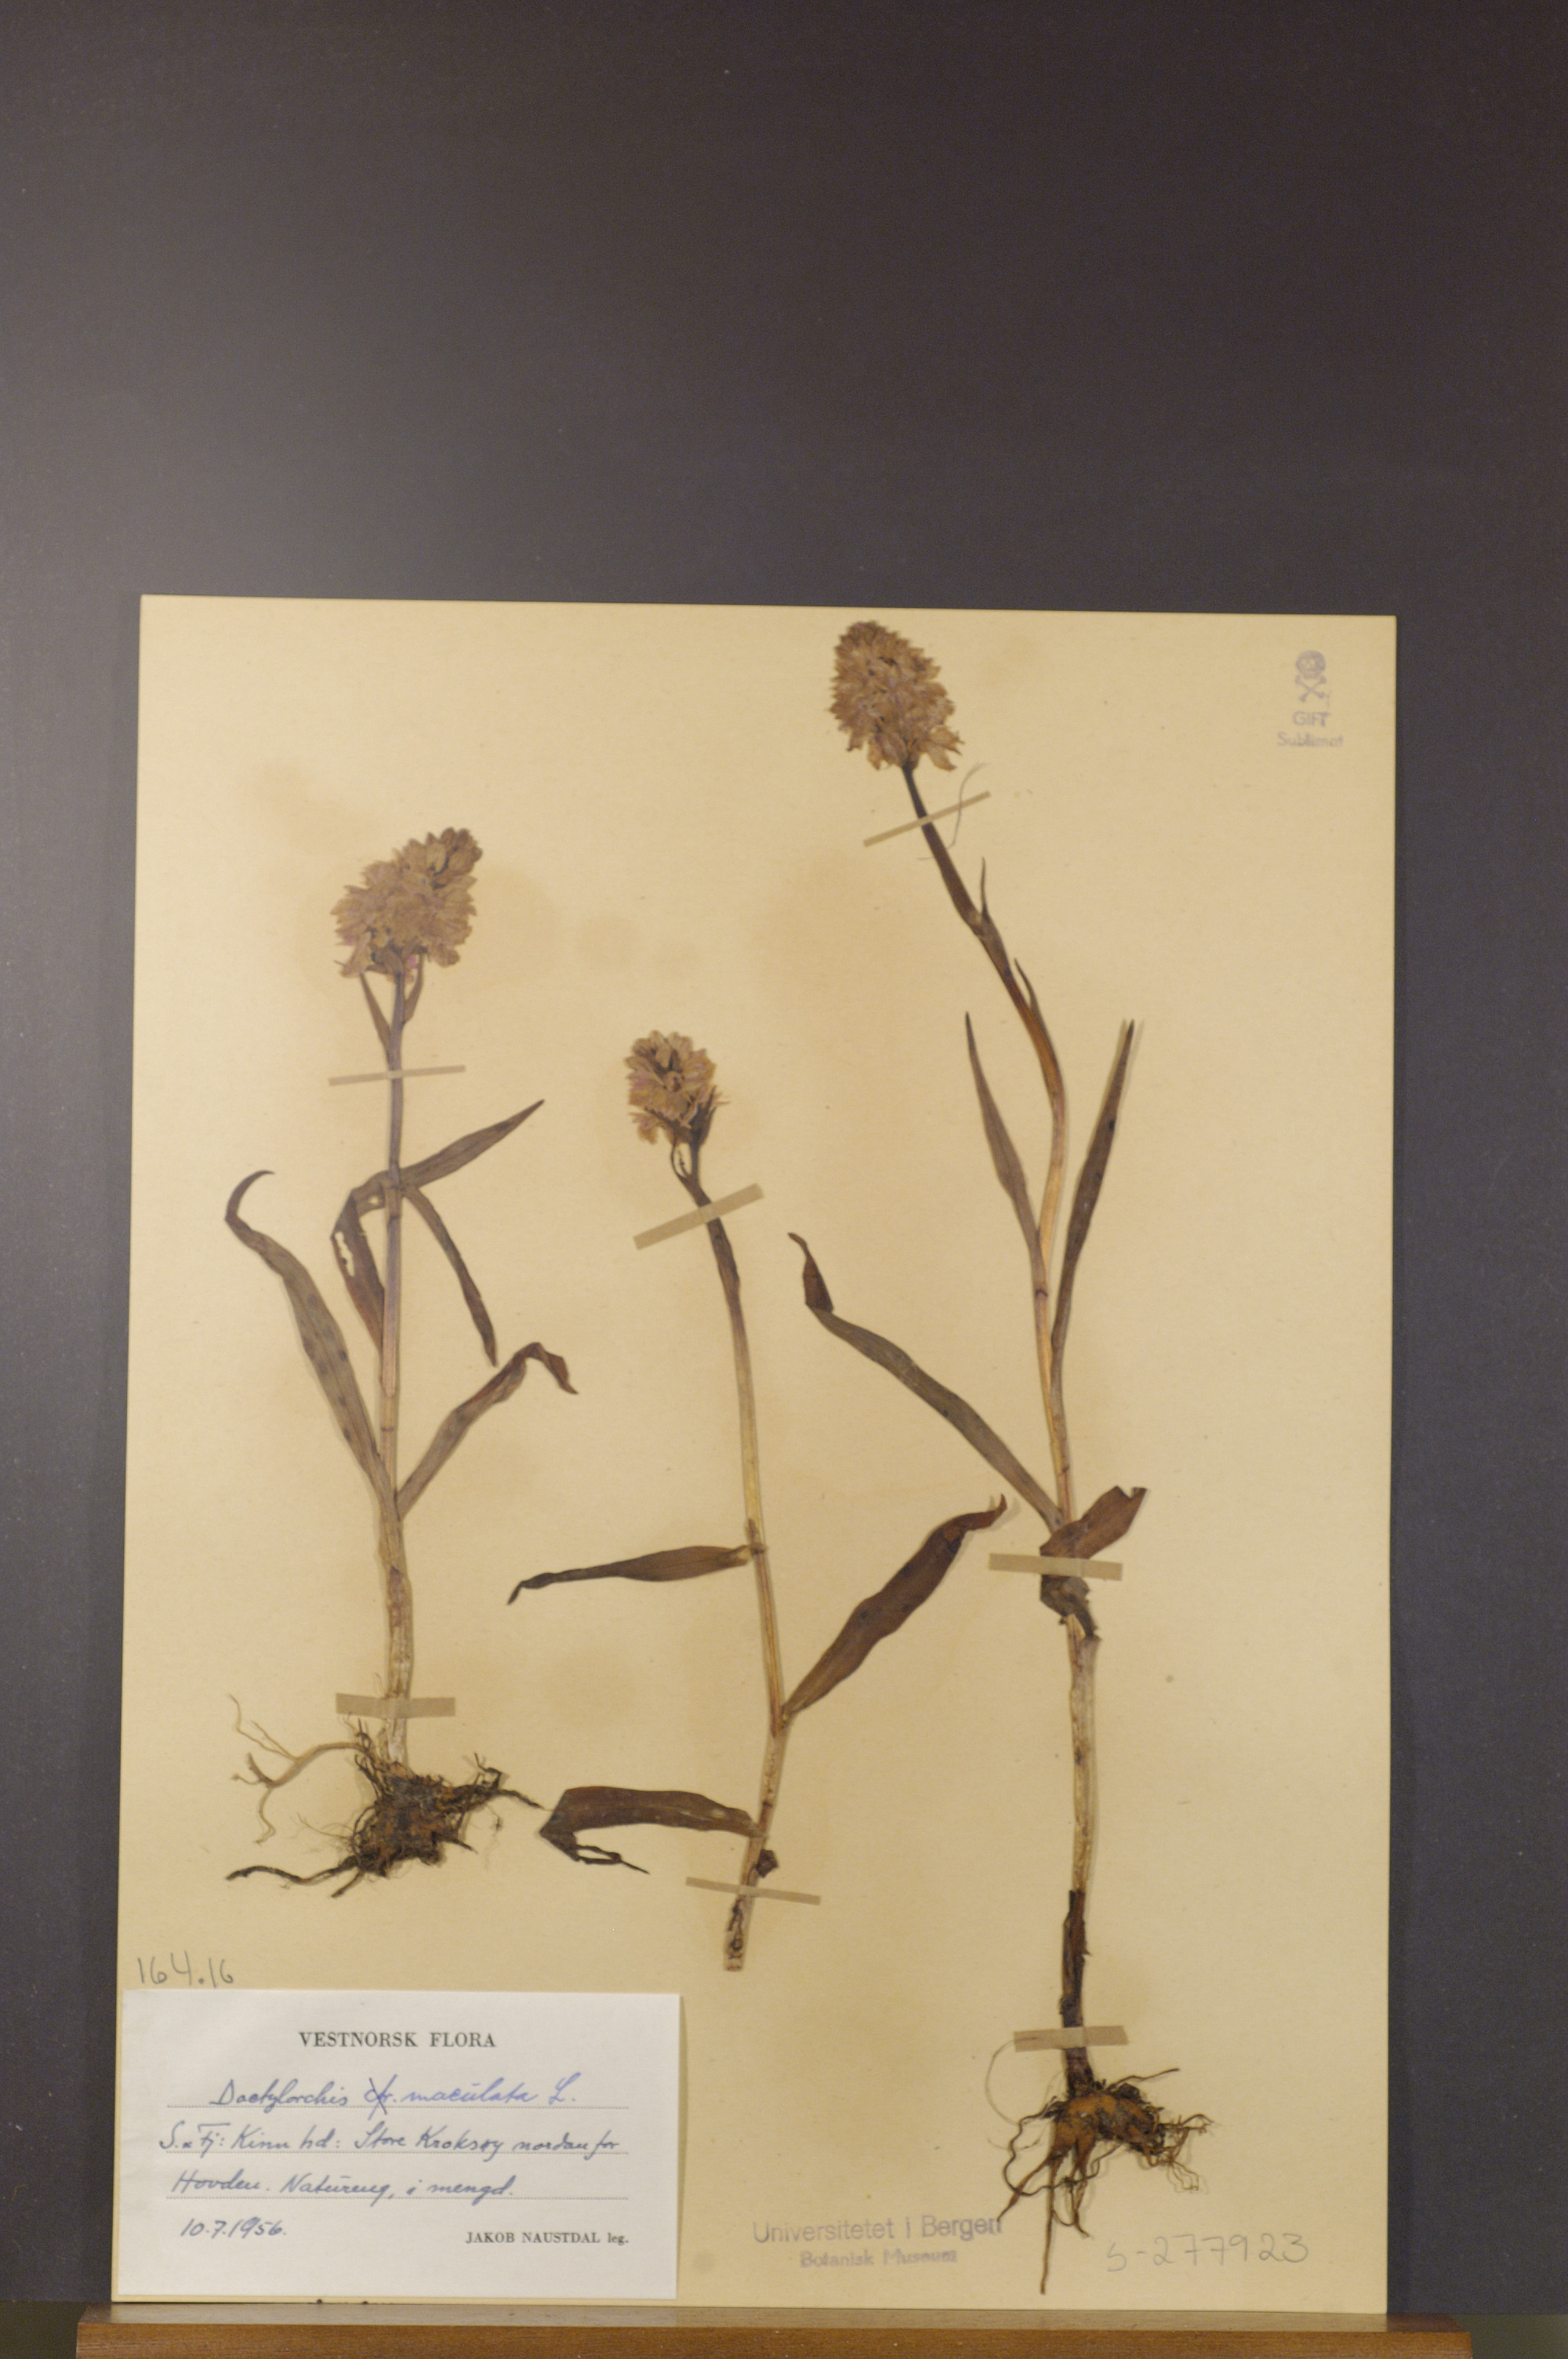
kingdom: Plantae
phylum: Tracheophyta
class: Liliopsida
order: Asparagales
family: Orchidaceae
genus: Dactylorhiza
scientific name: Dactylorhiza maculata
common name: Heath spotted-orchid
